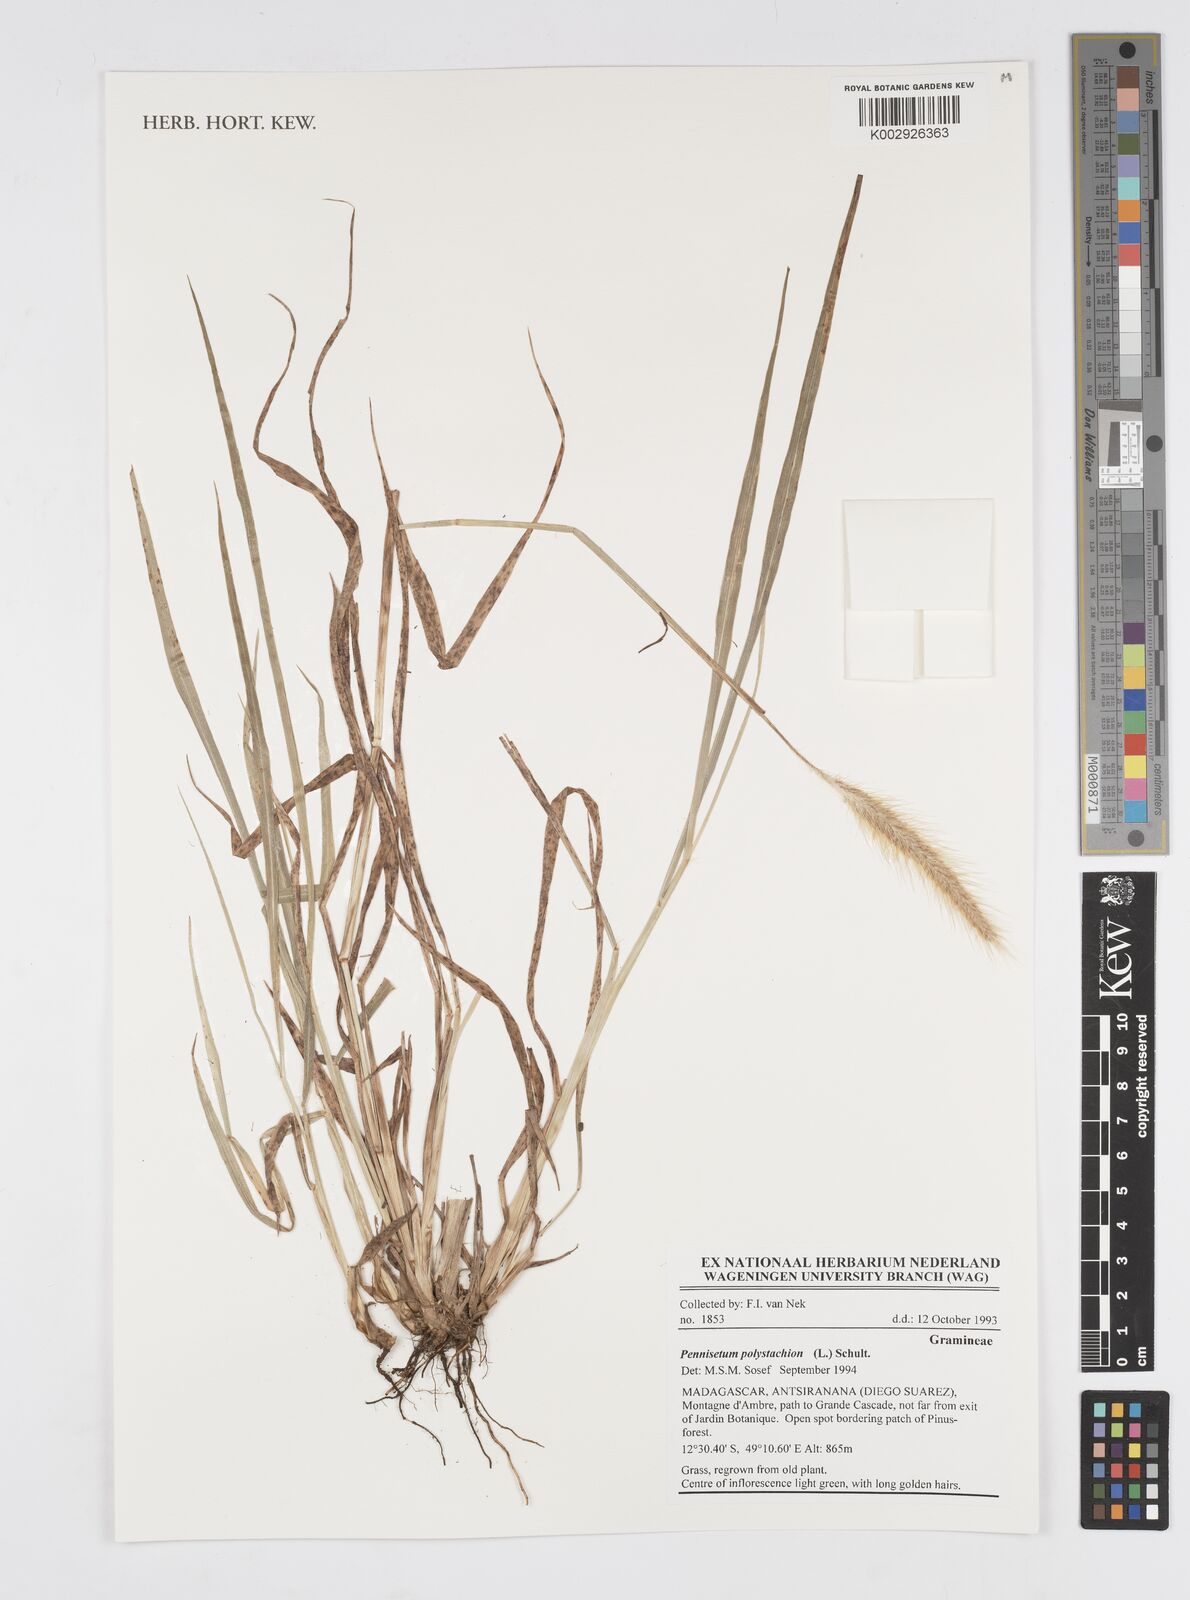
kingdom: Plantae
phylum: Tracheophyta
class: Liliopsida
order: Poales
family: Poaceae
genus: Setaria
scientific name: Setaria parviflora
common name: Knotroot bristle-grass
